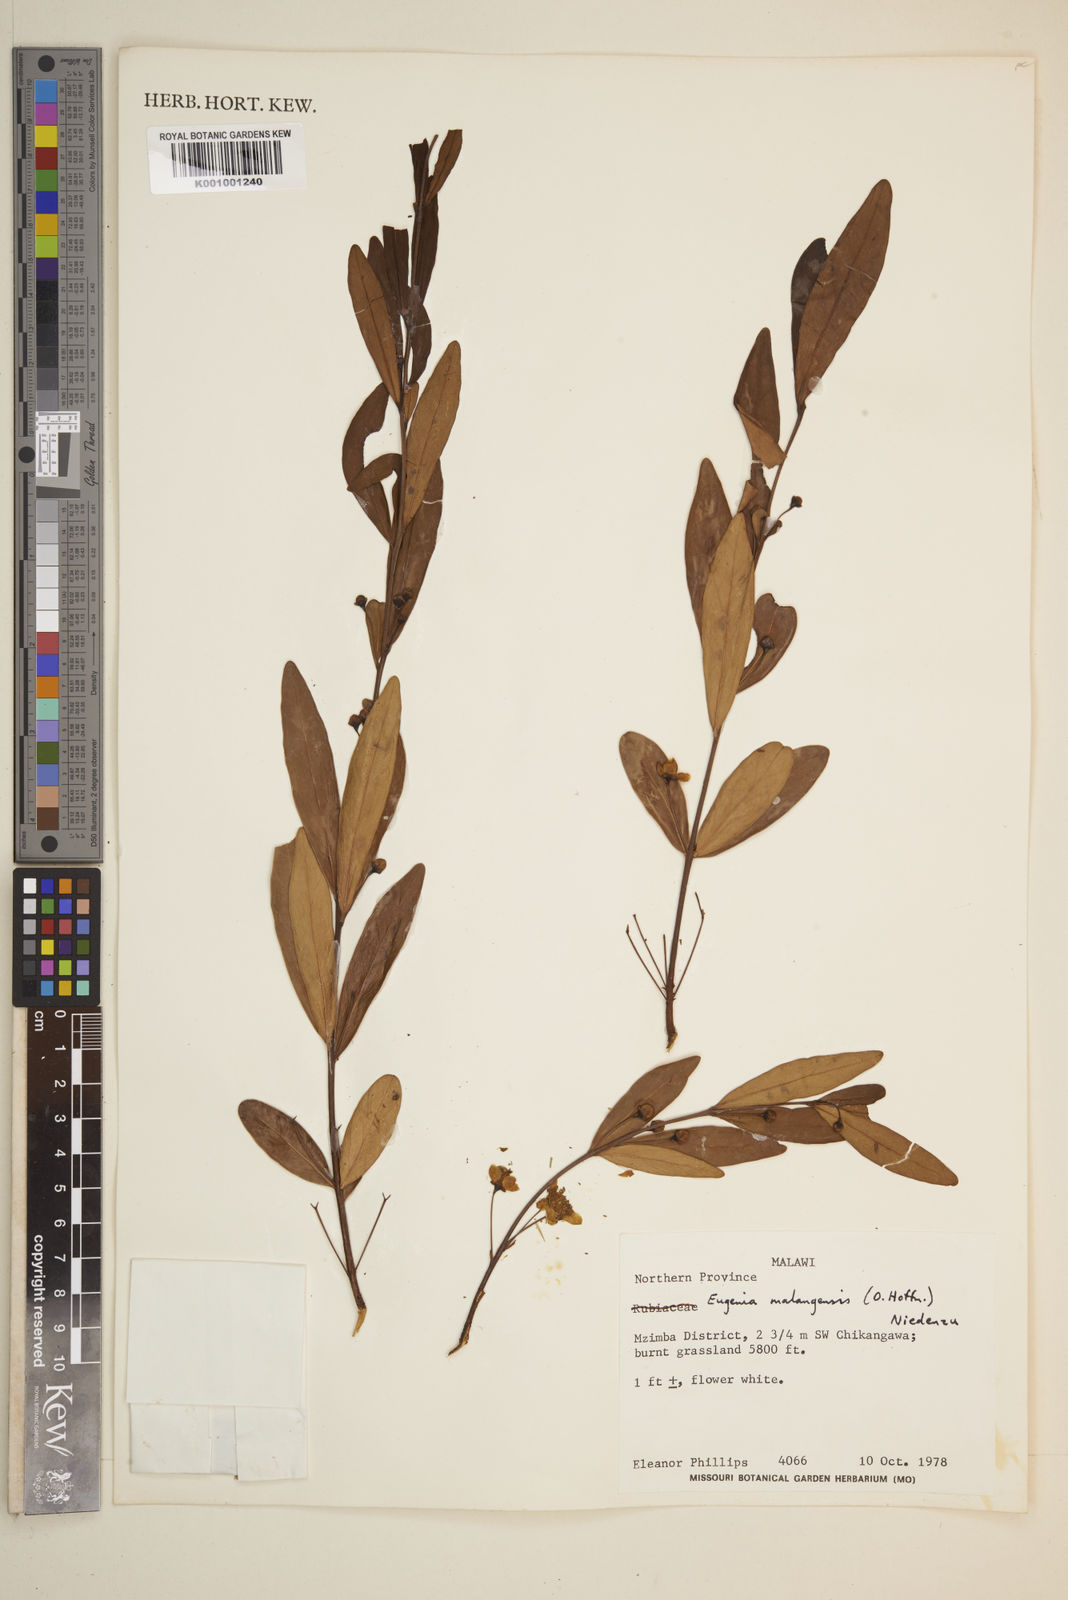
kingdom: Plantae
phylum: Tracheophyta
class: Magnoliopsida
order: Myrtales
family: Myrtaceae
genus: Eugenia
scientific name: Eugenia malangensis
